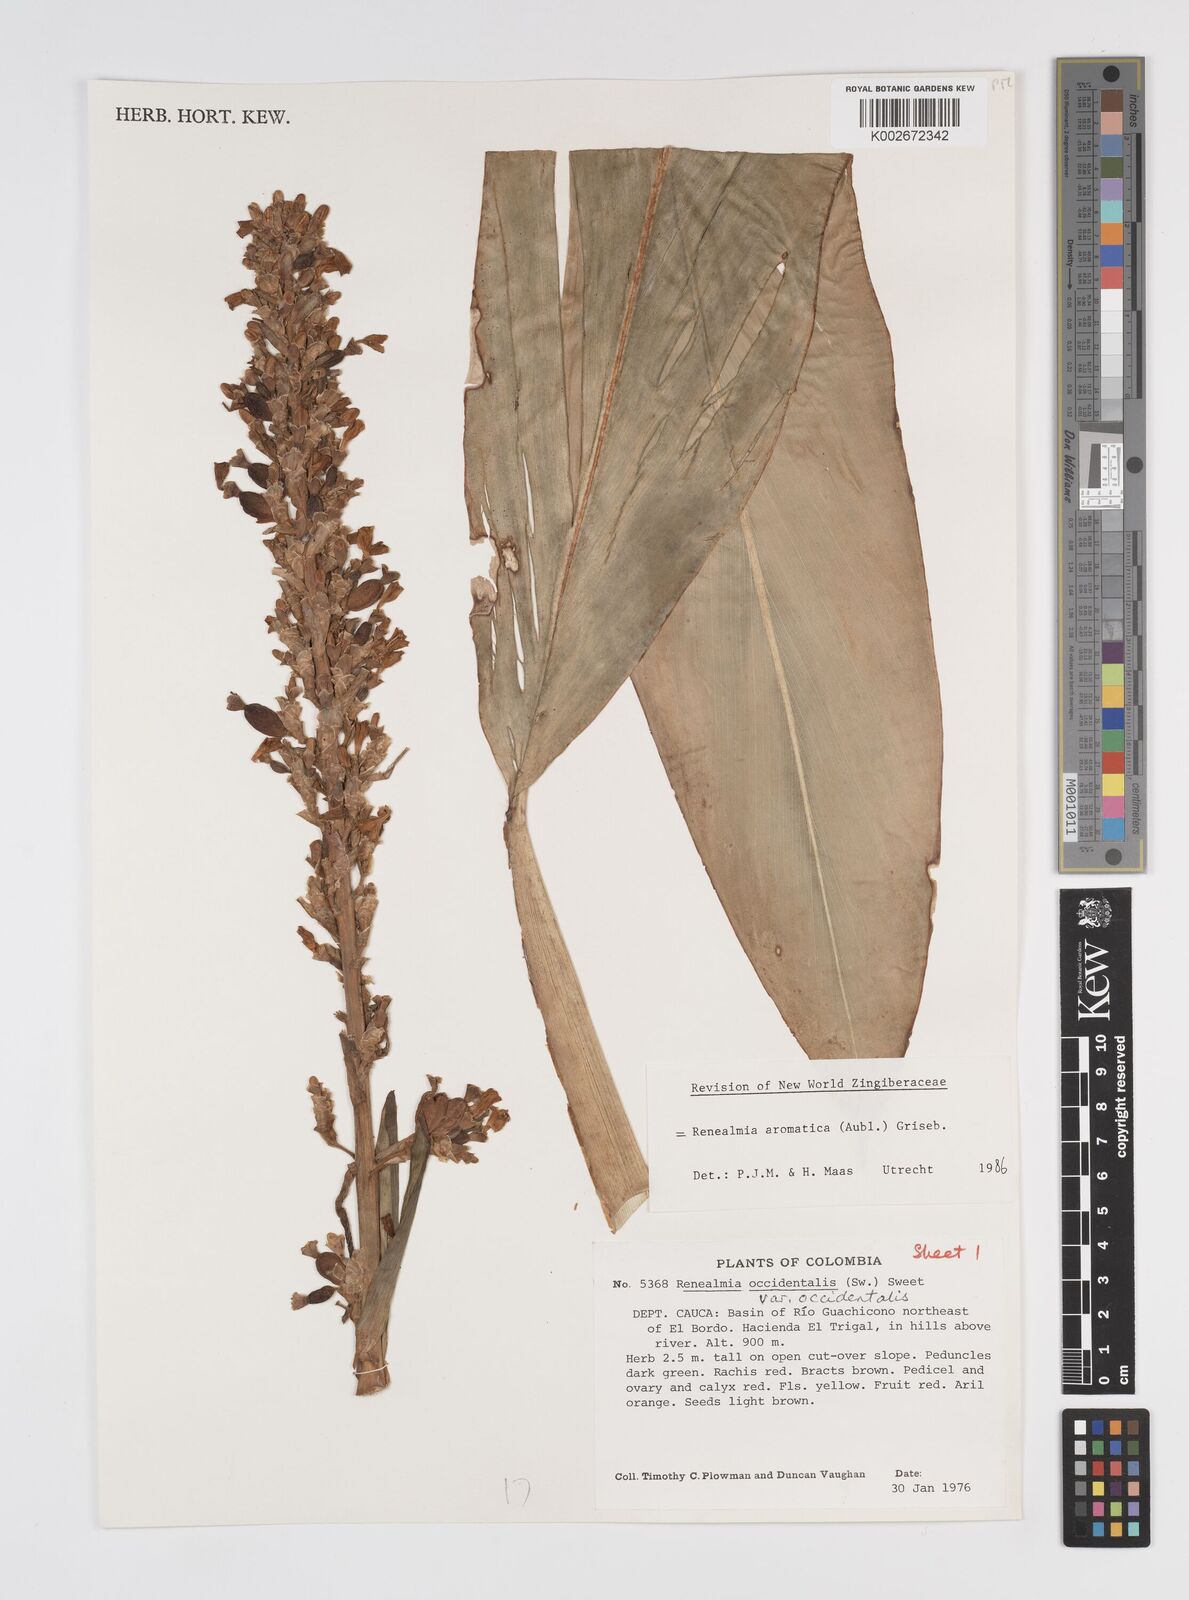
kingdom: Plantae
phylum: Tracheophyta
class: Liliopsida
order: Zingiberales
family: Zingiberaceae
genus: Renealmia
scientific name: Renealmia aromatica
